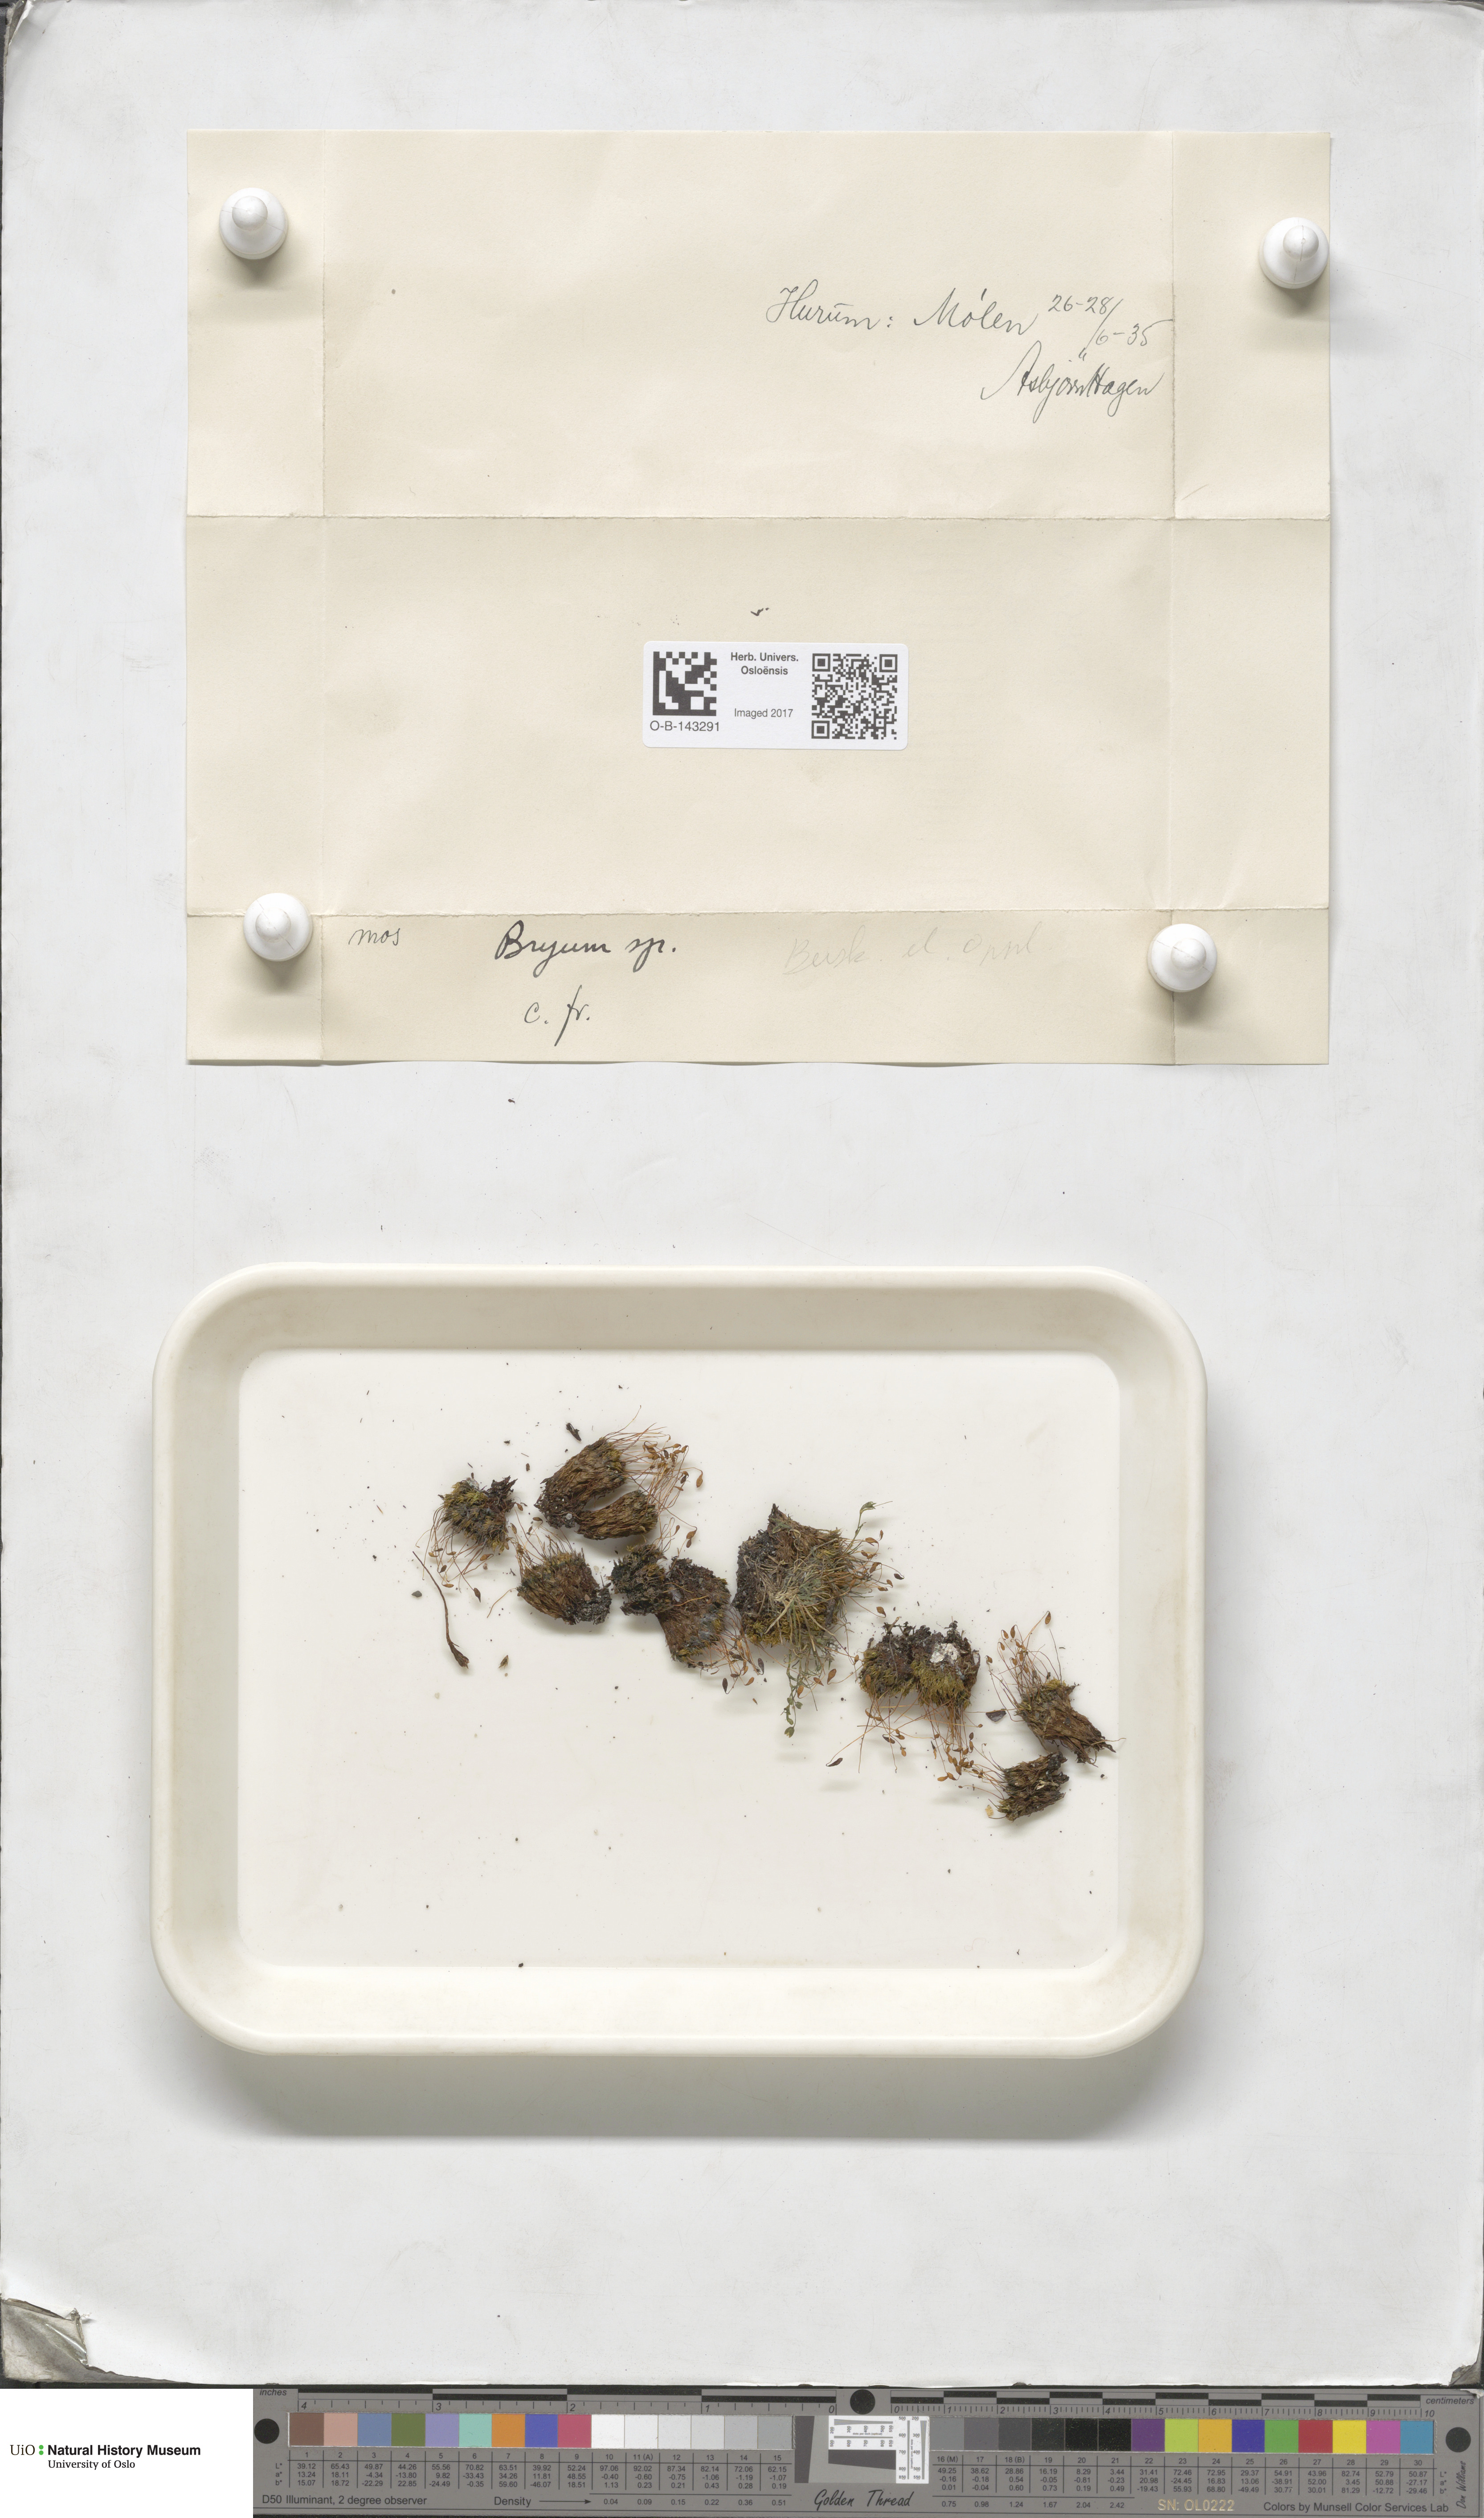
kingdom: Plantae
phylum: Bryophyta
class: Bryopsida
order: Bryales
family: Bryaceae
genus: Bryum
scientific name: Bryum
